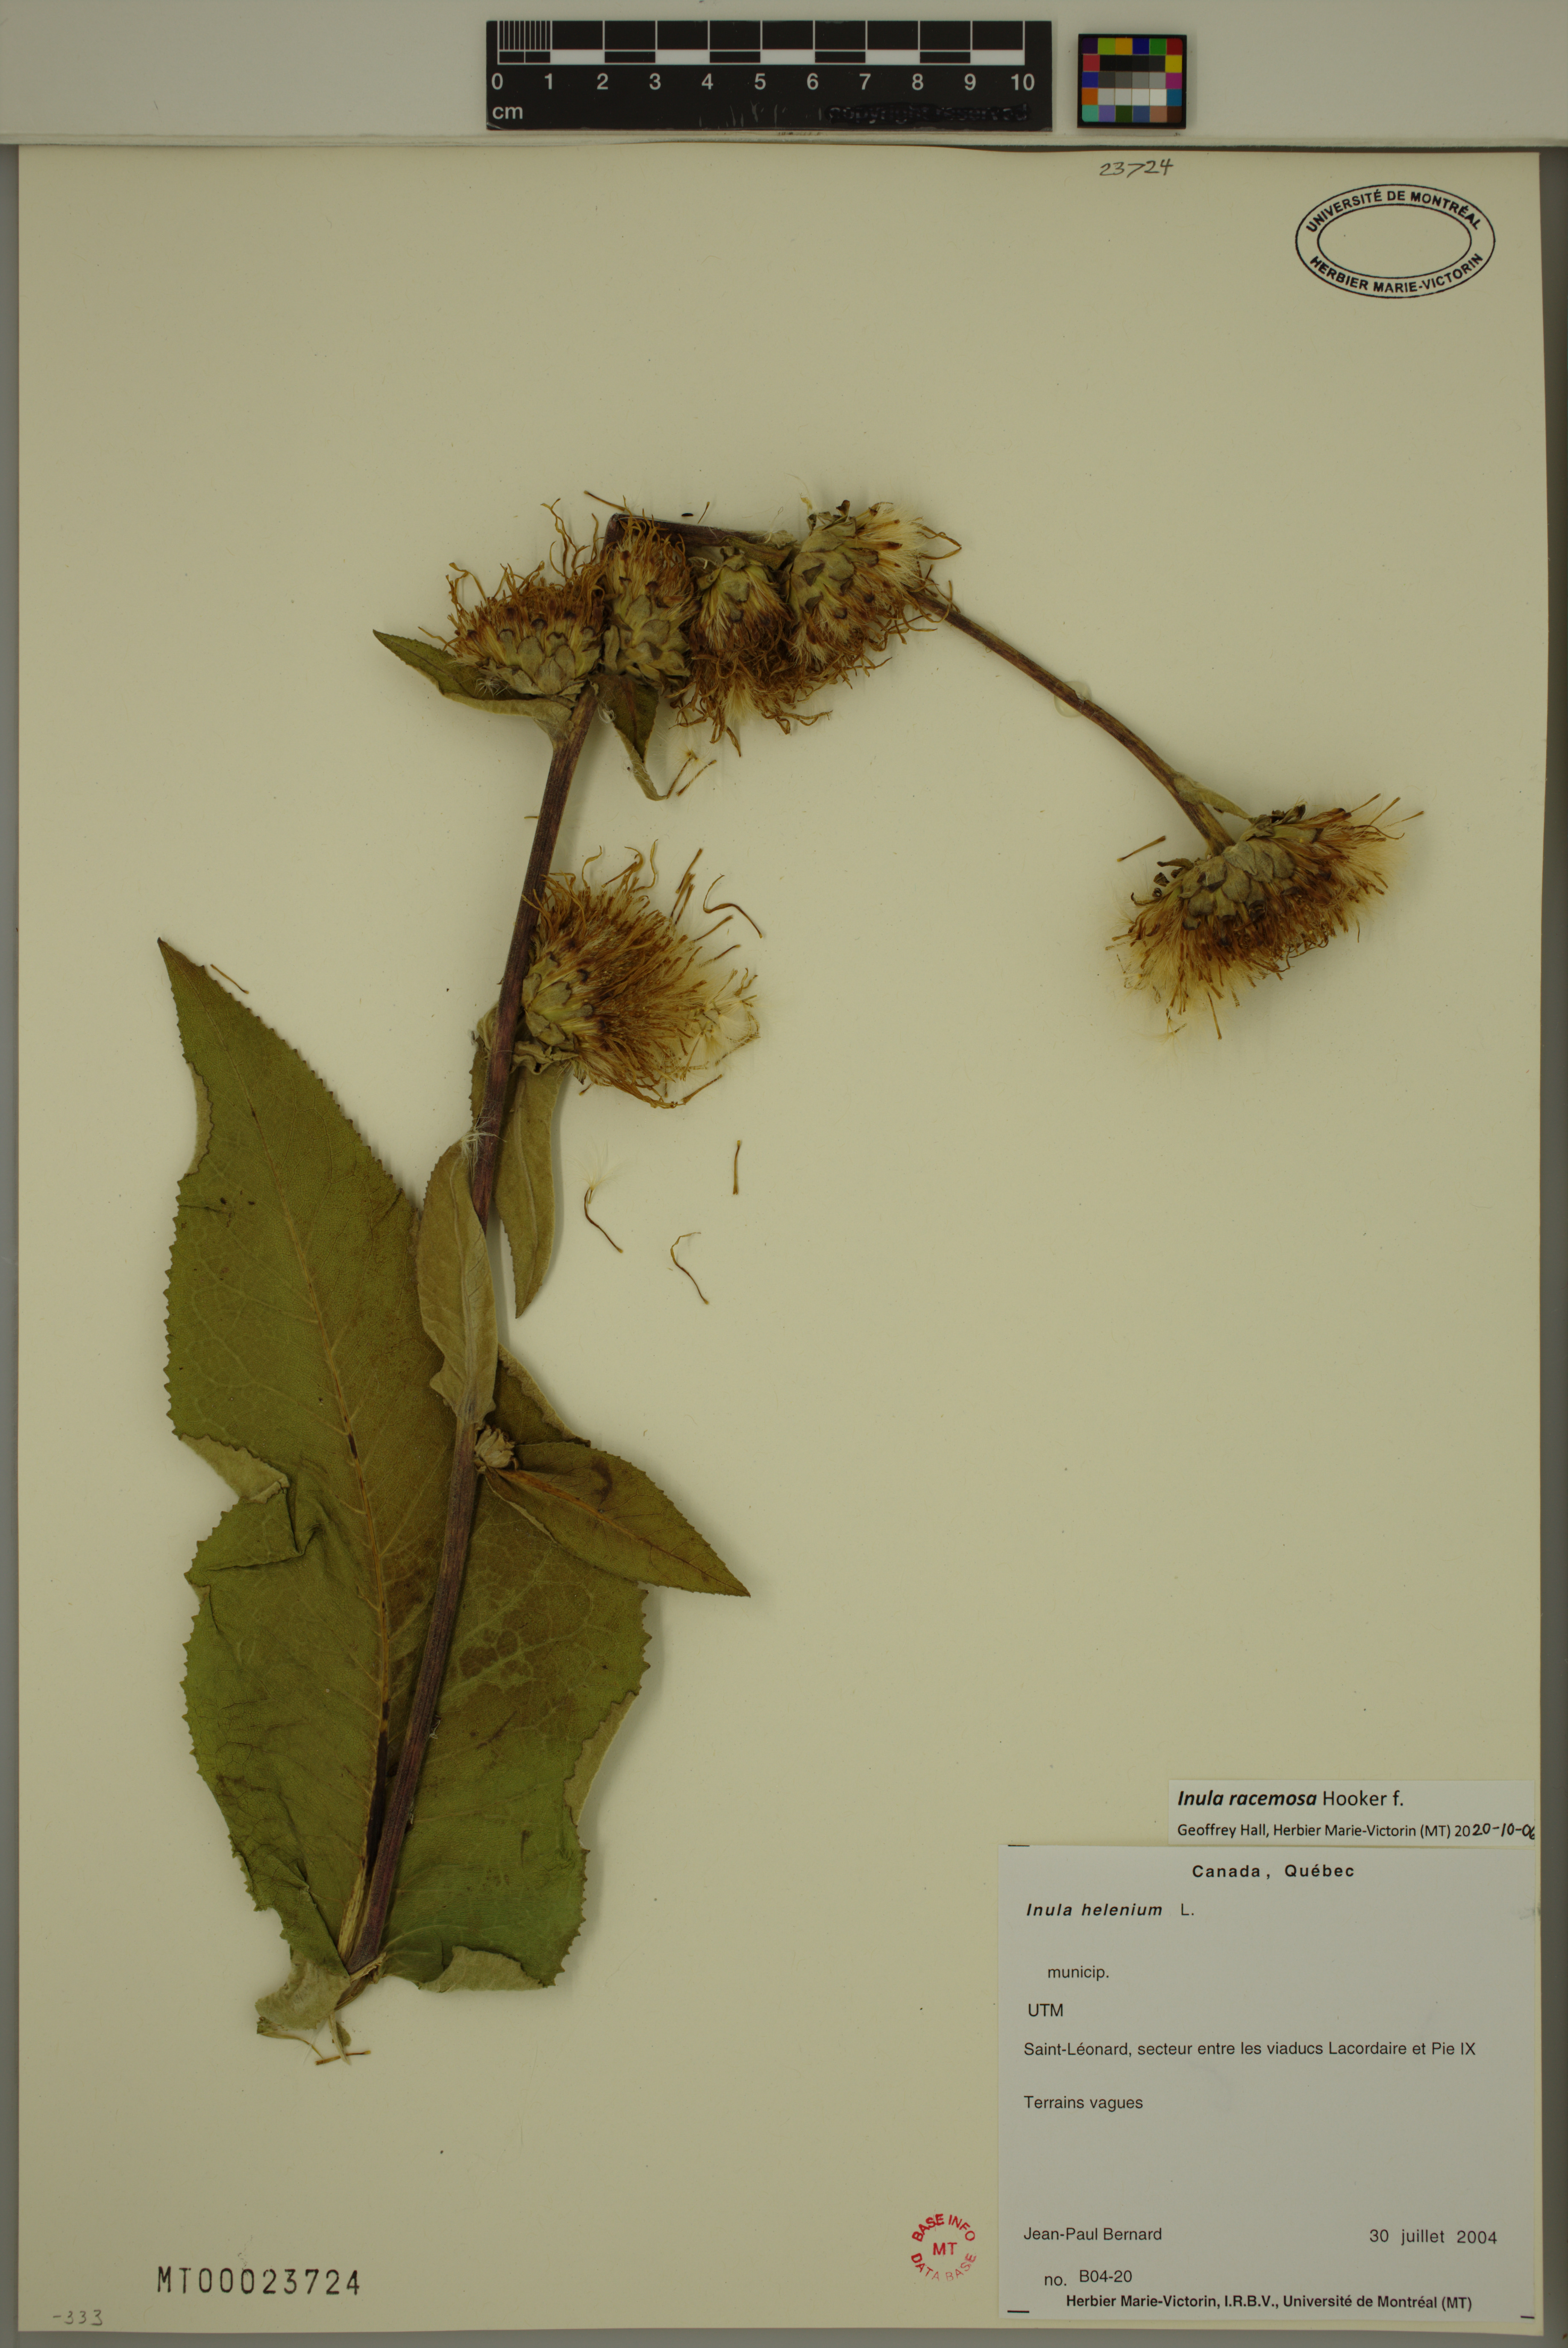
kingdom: Plantae
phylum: Tracheophyta
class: Magnoliopsida
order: Asterales
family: Asteraceae
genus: Inula
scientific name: Inula racemosa
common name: Indian elecampane
